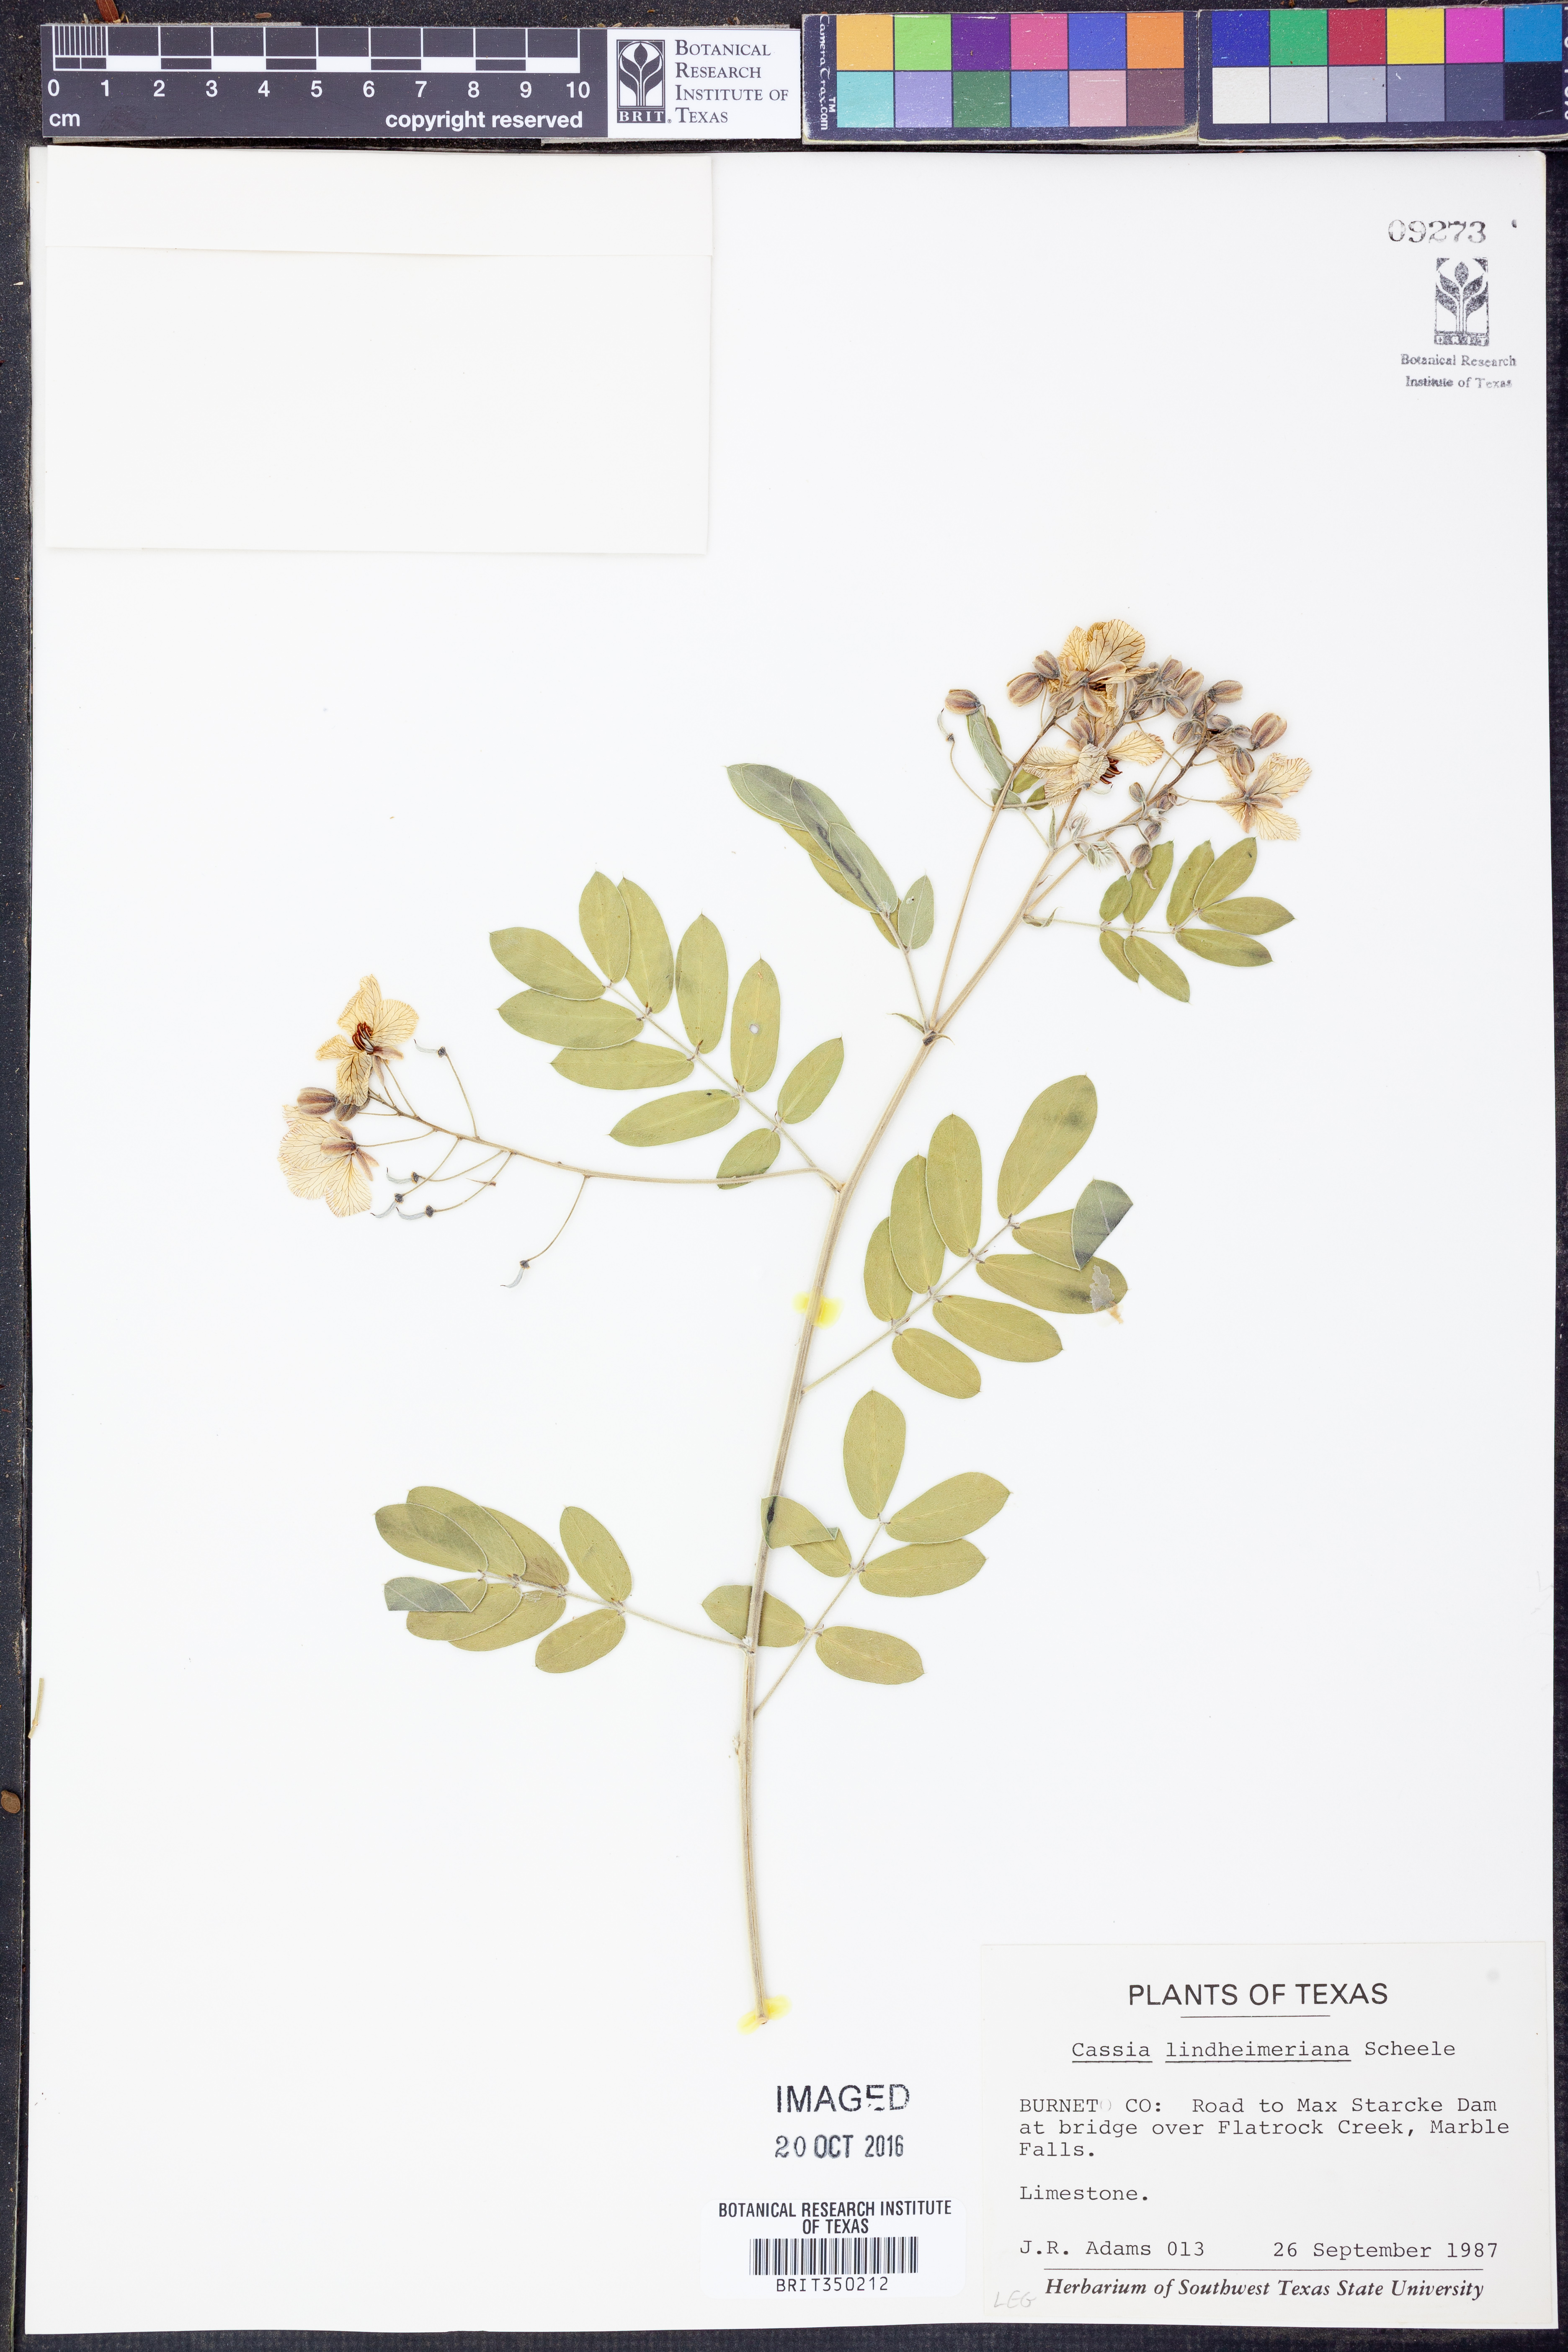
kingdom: Plantae
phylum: Tracheophyta
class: Magnoliopsida
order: Fabales
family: Fabaceae
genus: Senna
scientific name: Senna lindheimeriana
